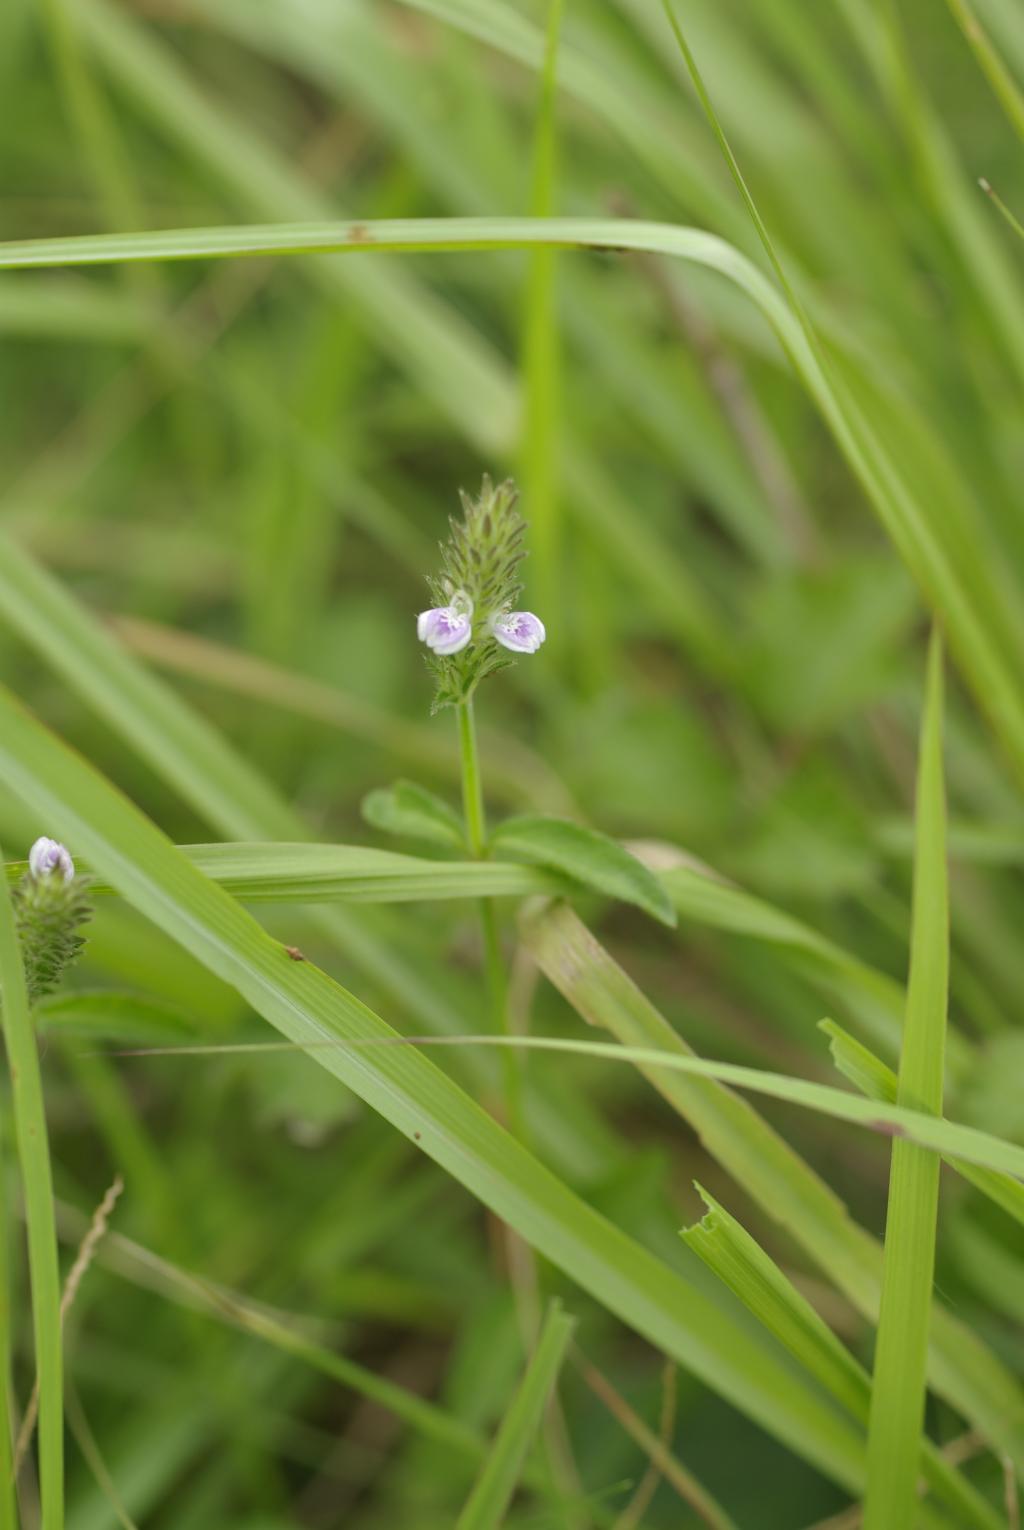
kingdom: Plantae
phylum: Tracheophyta
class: Magnoliopsida
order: Lamiales
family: Acanthaceae
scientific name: Acanthaceae
